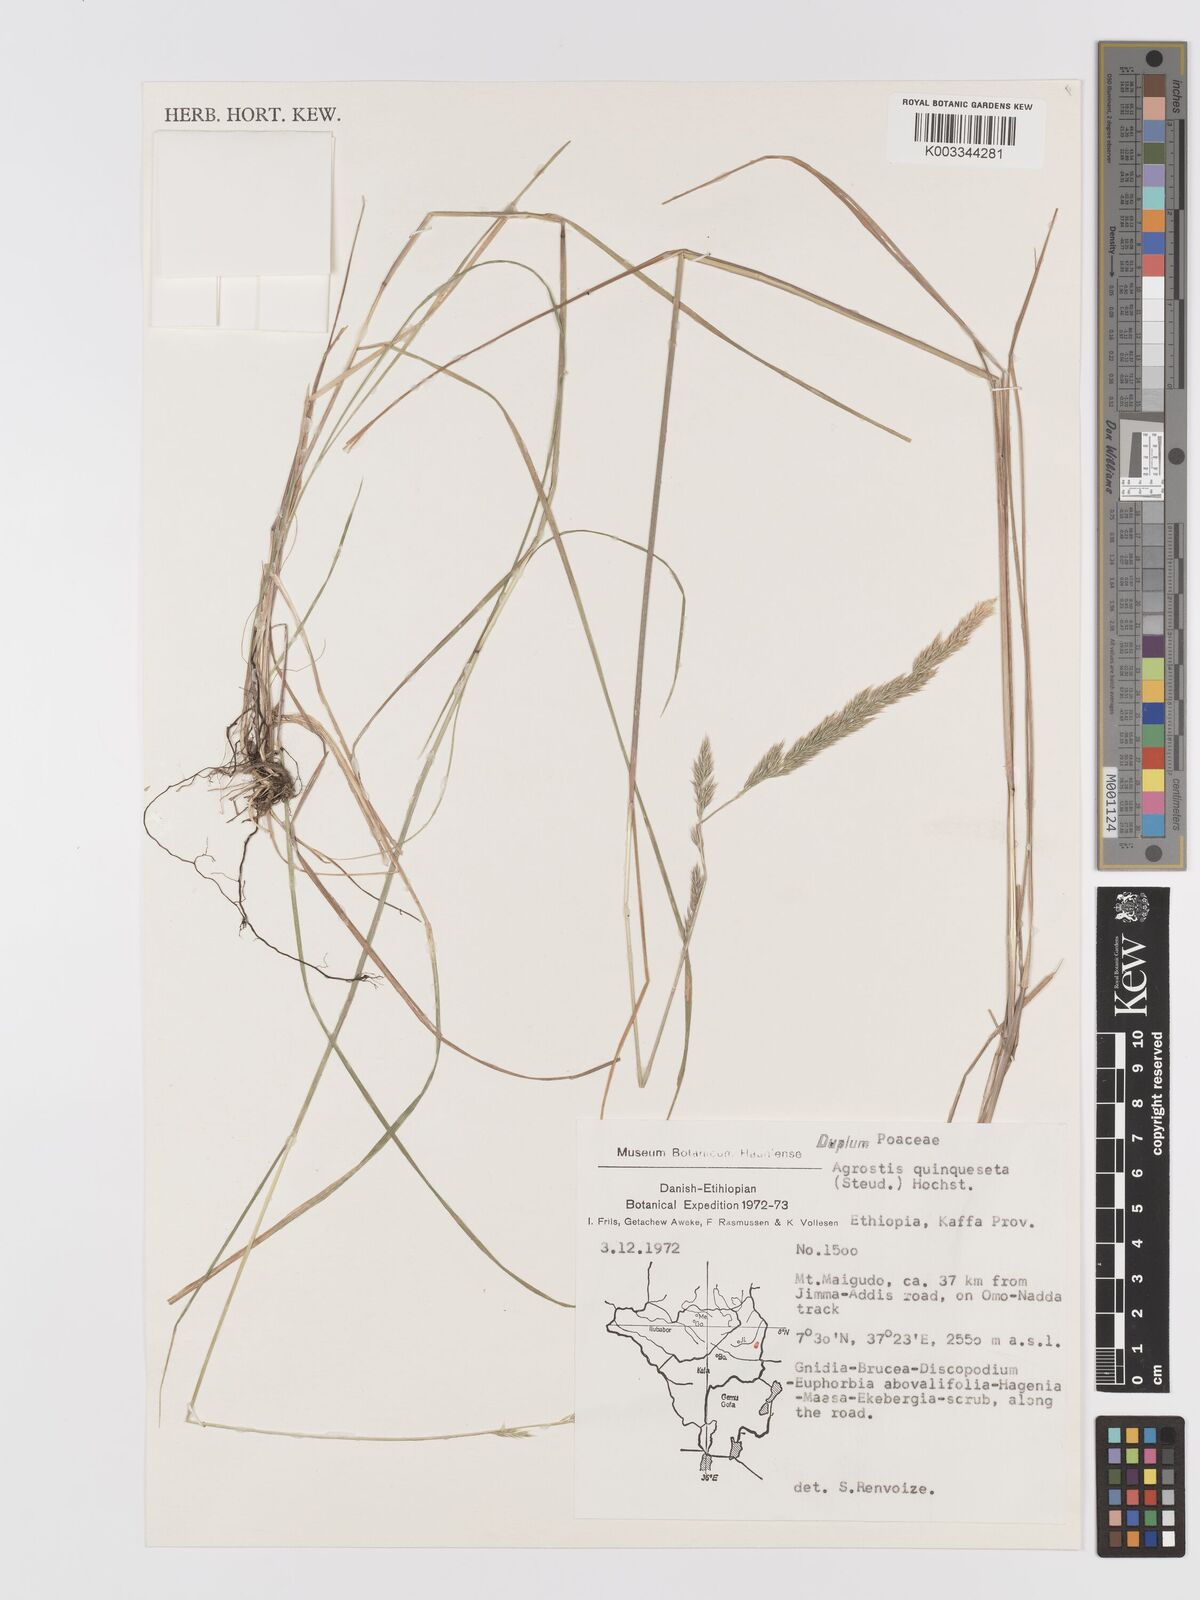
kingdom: Plantae
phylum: Tracheophyta
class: Liliopsida
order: Poales
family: Poaceae
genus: Agrostis
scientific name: Agrostis quinqueseta
